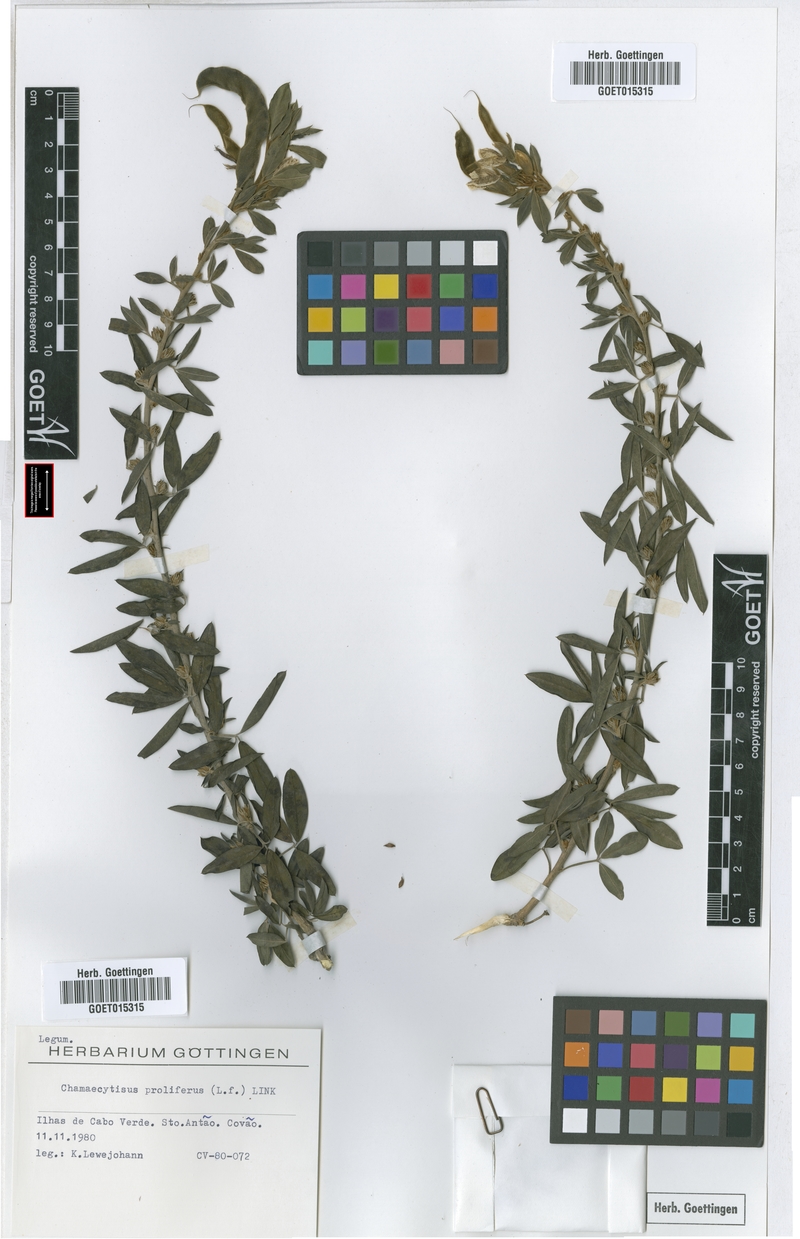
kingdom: Plantae
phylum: Tracheophyta
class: Magnoliopsida
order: Fabales
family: Fabaceae
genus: Cytisus
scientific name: Cytisus proliferus
